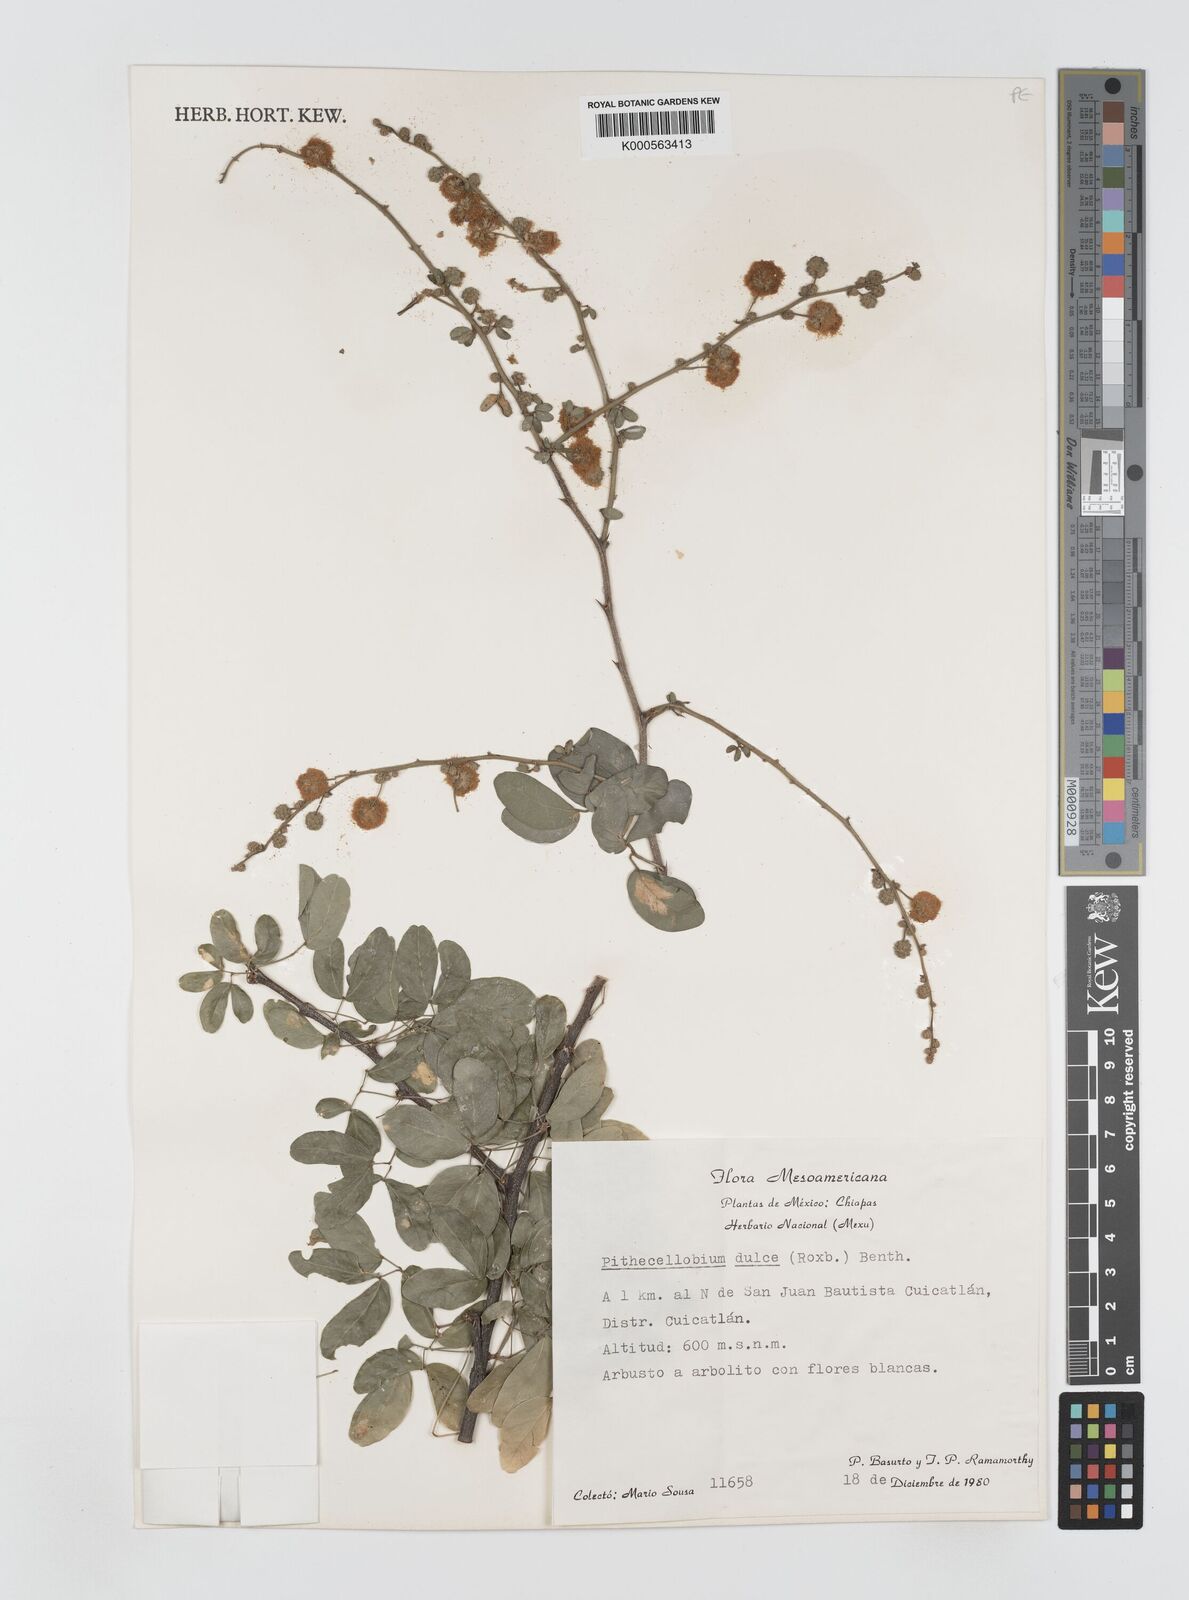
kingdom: Plantae
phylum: Tracheophyta
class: Magnoliopsida
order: Fabales
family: Fabaceae
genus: Pithecellobium
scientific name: Pithecellobium dulce
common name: Monkeypod
